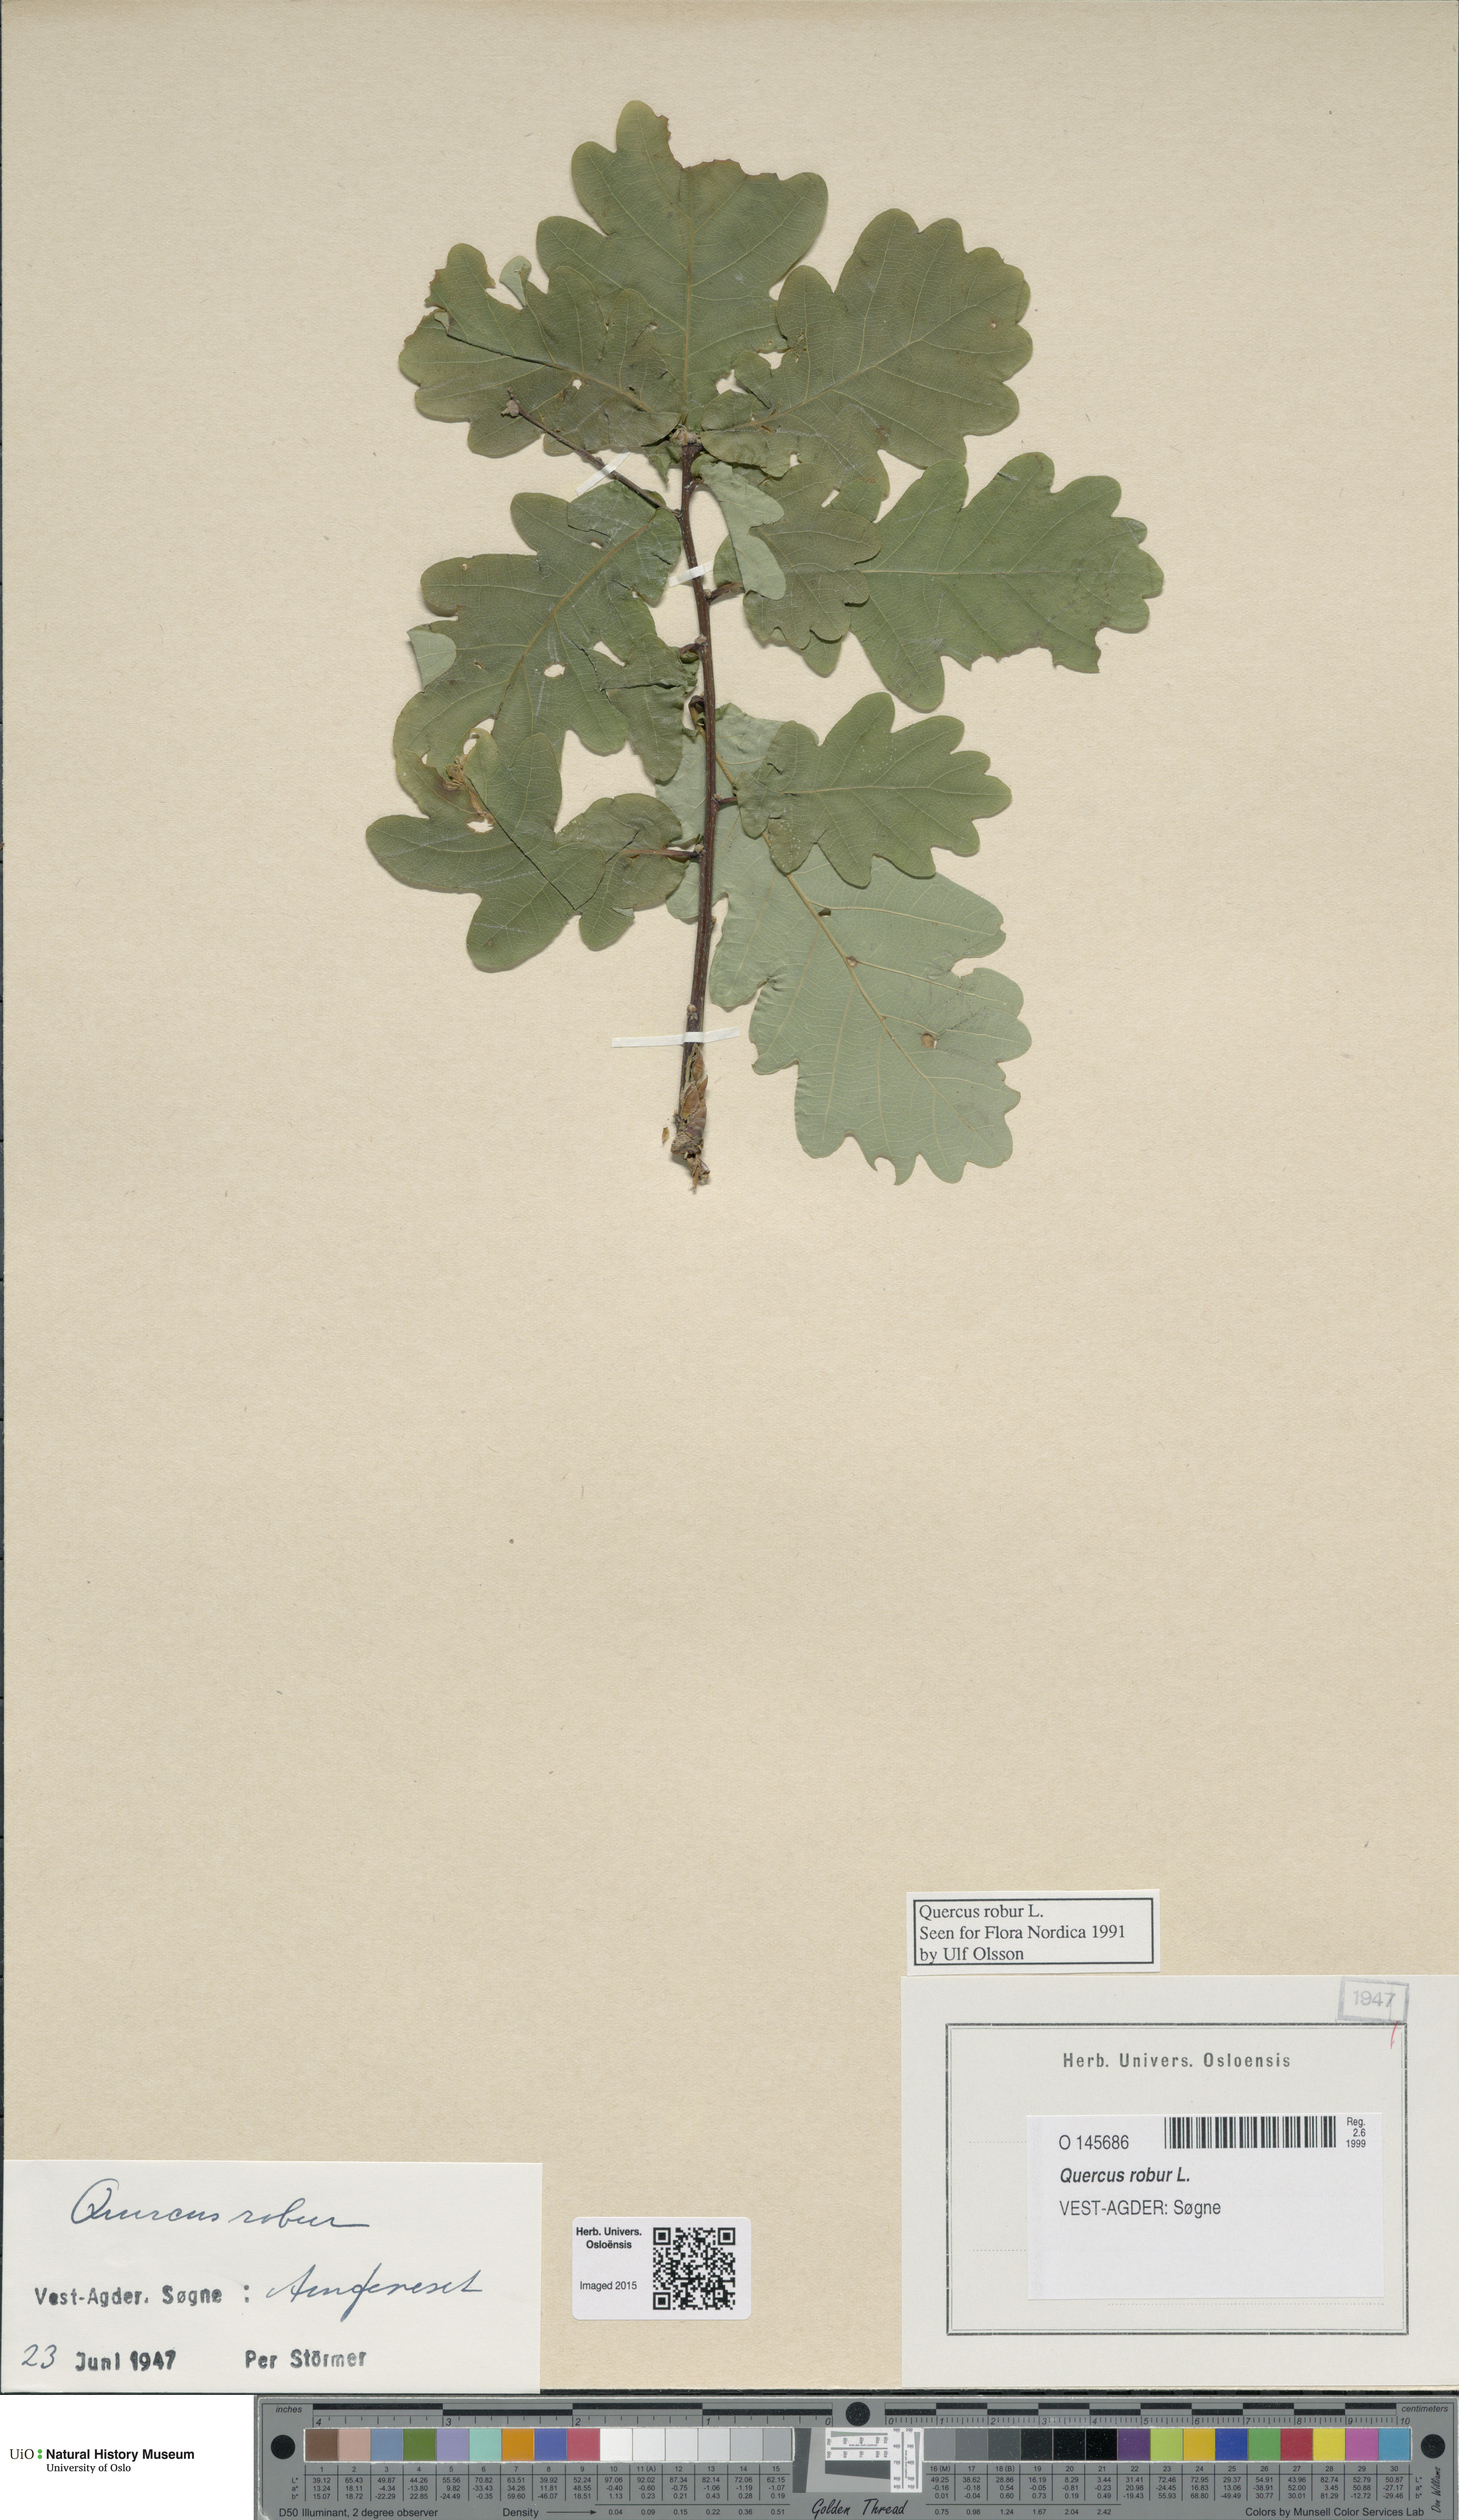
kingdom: Plantae
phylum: Tracheophyta
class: Magnoliopsida
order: Fagales
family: Fagaceae
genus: Quercus
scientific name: Quercus robur
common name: Pedunculate oak
